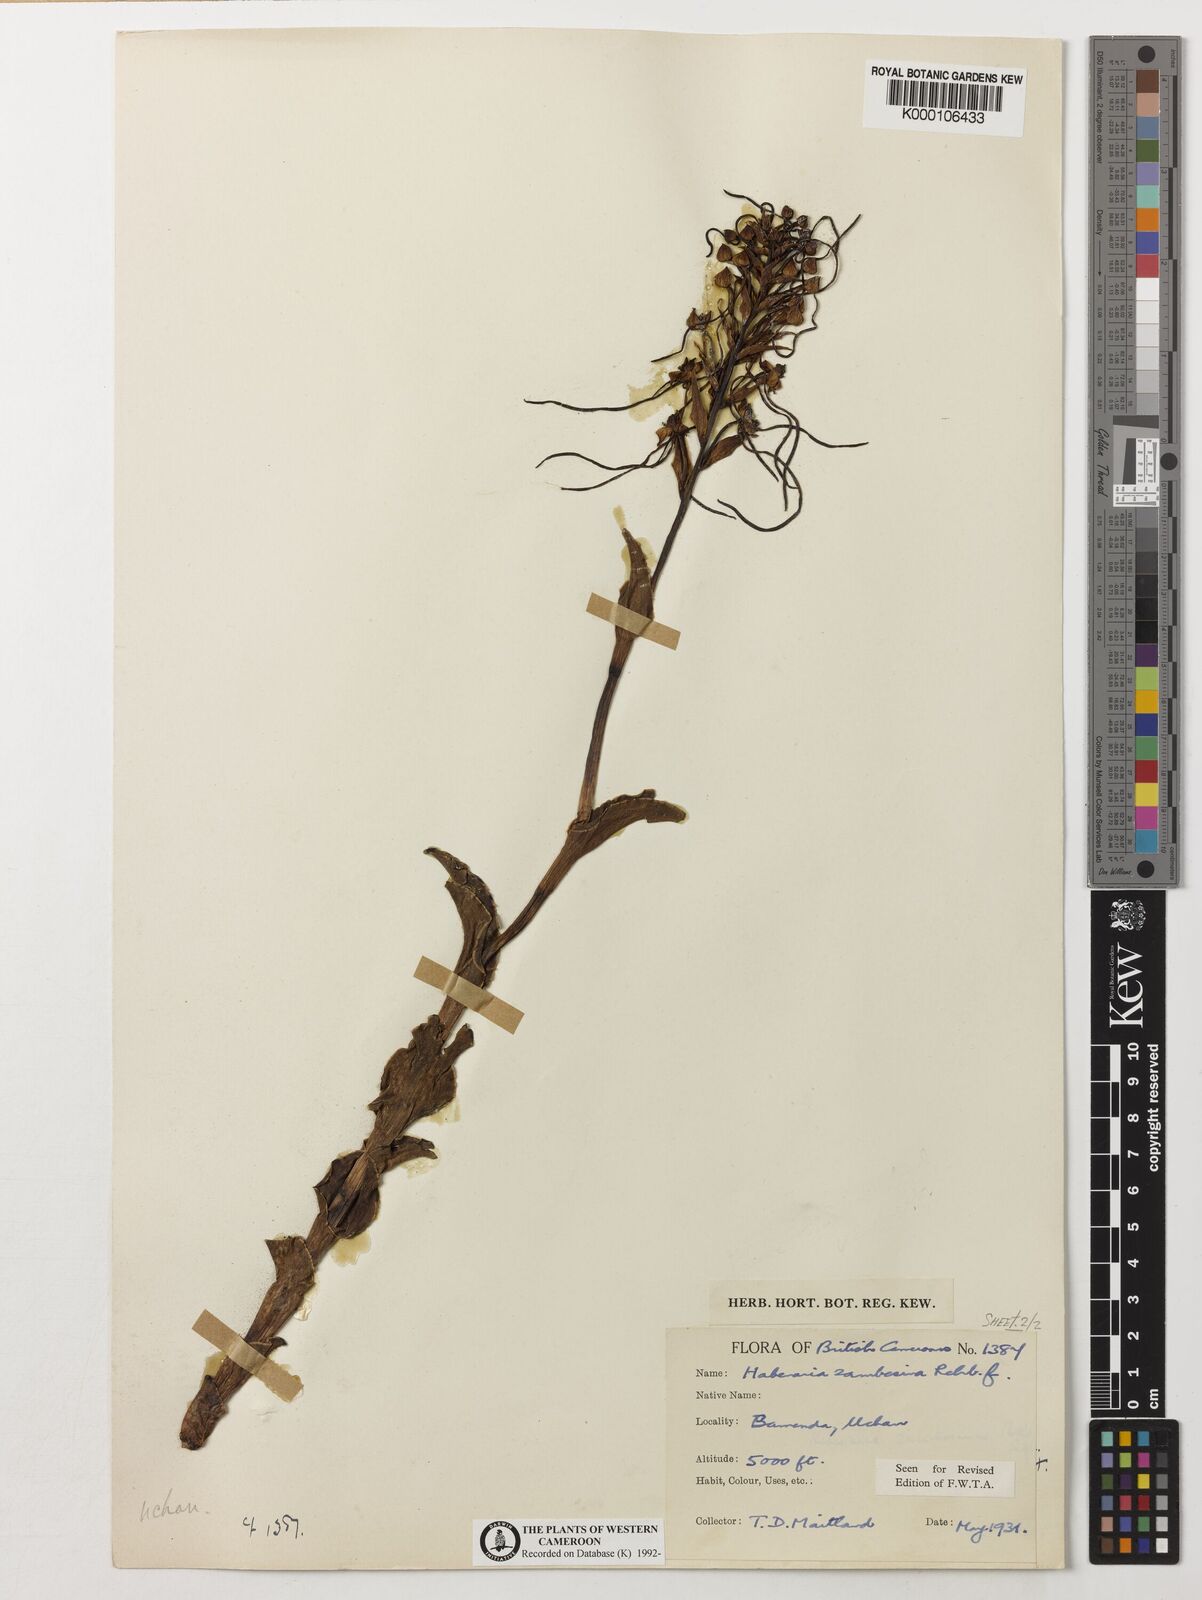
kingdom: Plantae
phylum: Tracheophyta
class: Liliopsida
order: Asparagales
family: Orchidaceae
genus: Habenaria
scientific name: Habenaria zambesina
